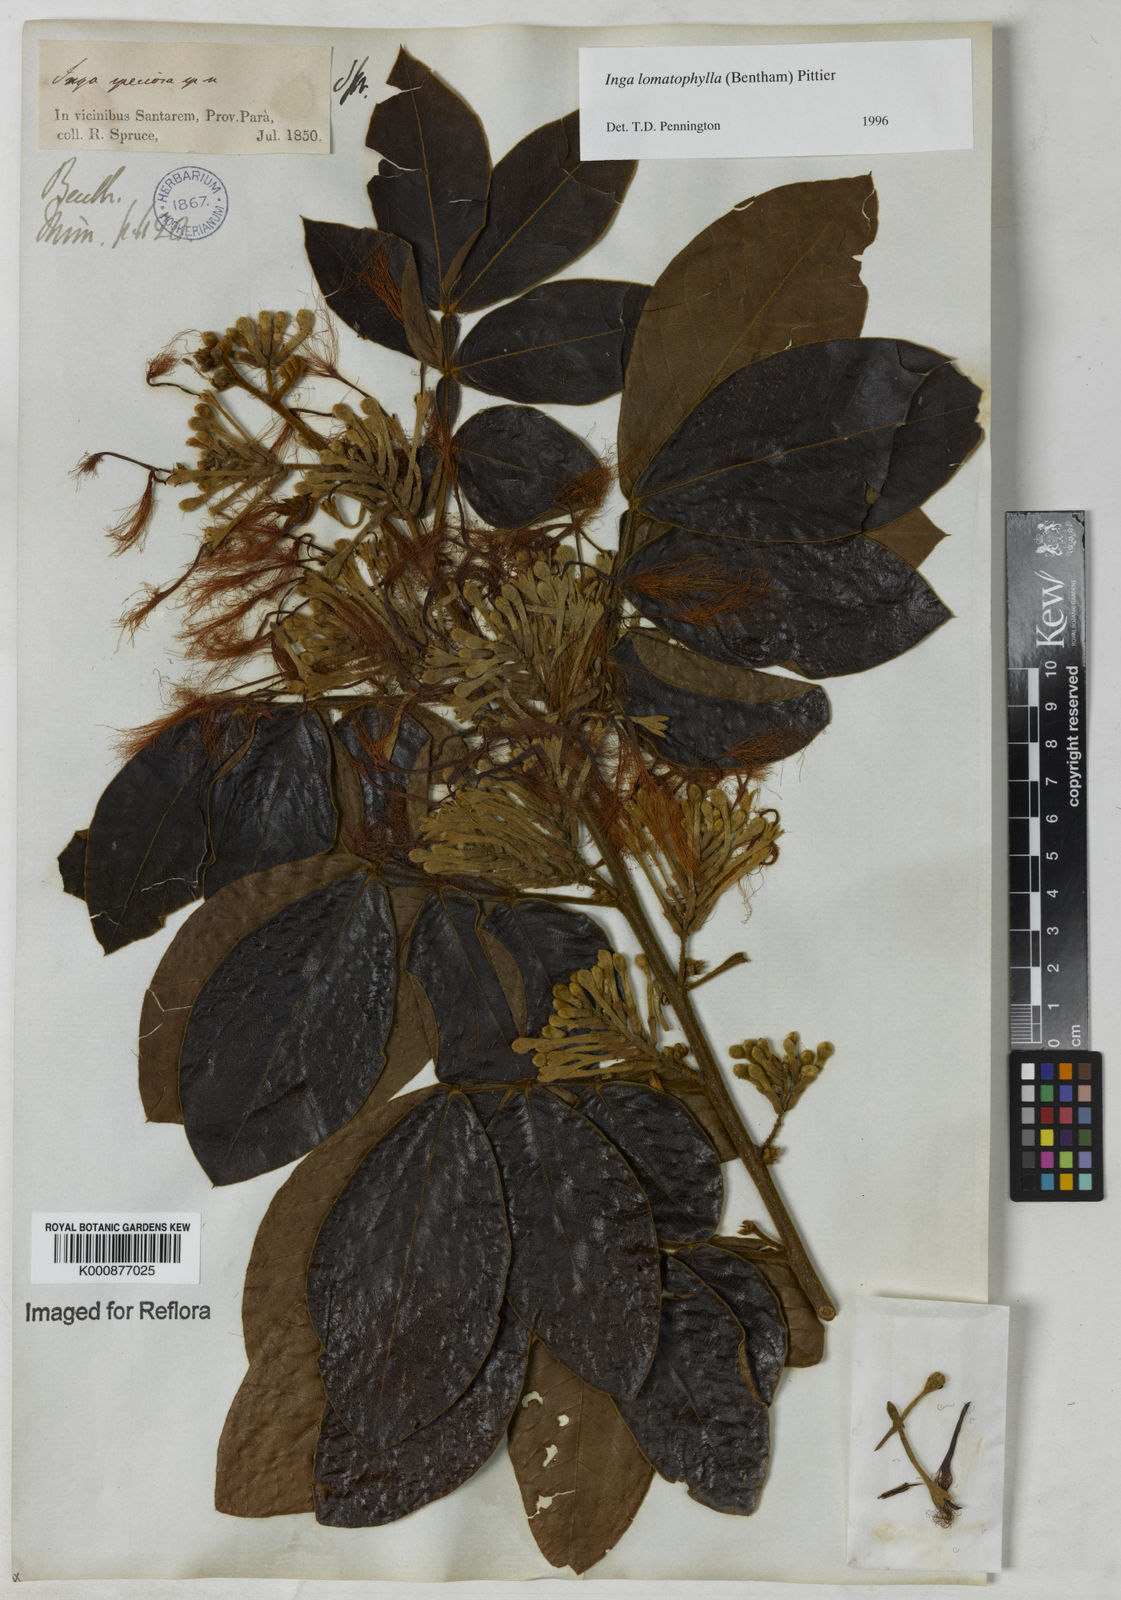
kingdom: Plantae
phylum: Tracheophyta
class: Magnoliopsida
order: Fabales
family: Fabaceae
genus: Inga
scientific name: Inga lomatophylla
